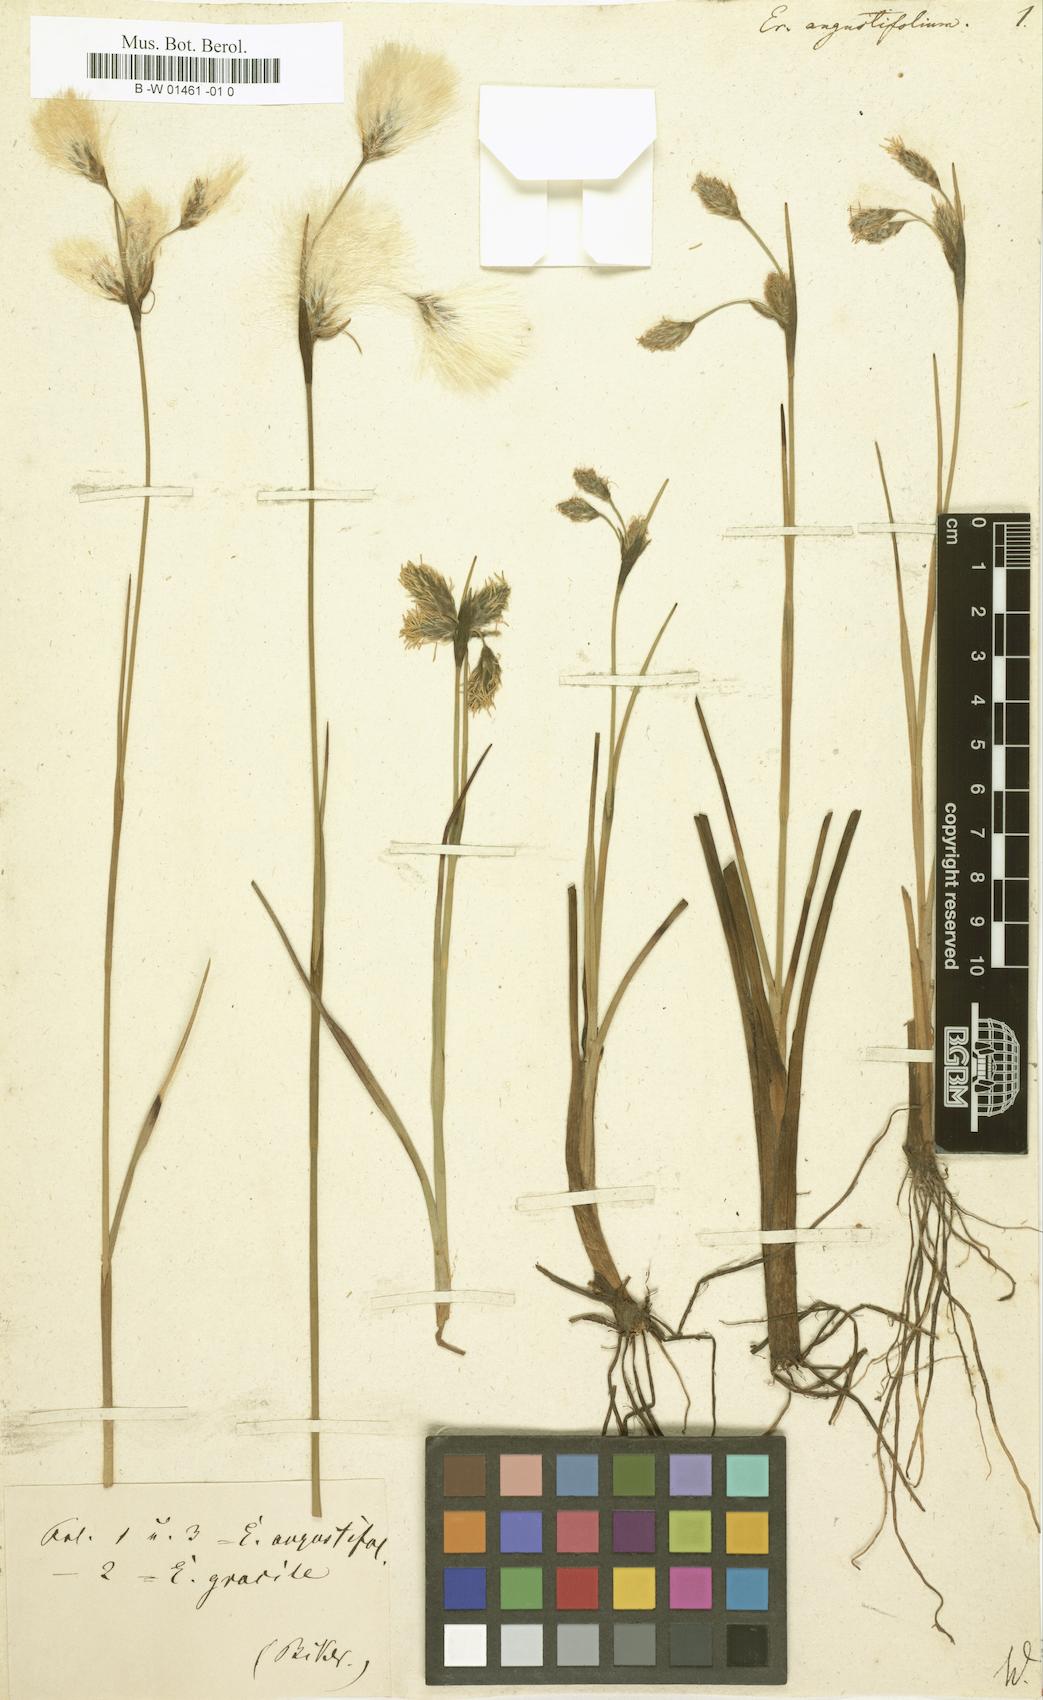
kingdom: Plantae
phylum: Tracheophyta
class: Liliopsida
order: Poales
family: Cyperaceae
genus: Eriophorum
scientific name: Eriophorum angustifolium
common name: Common cottongrass
